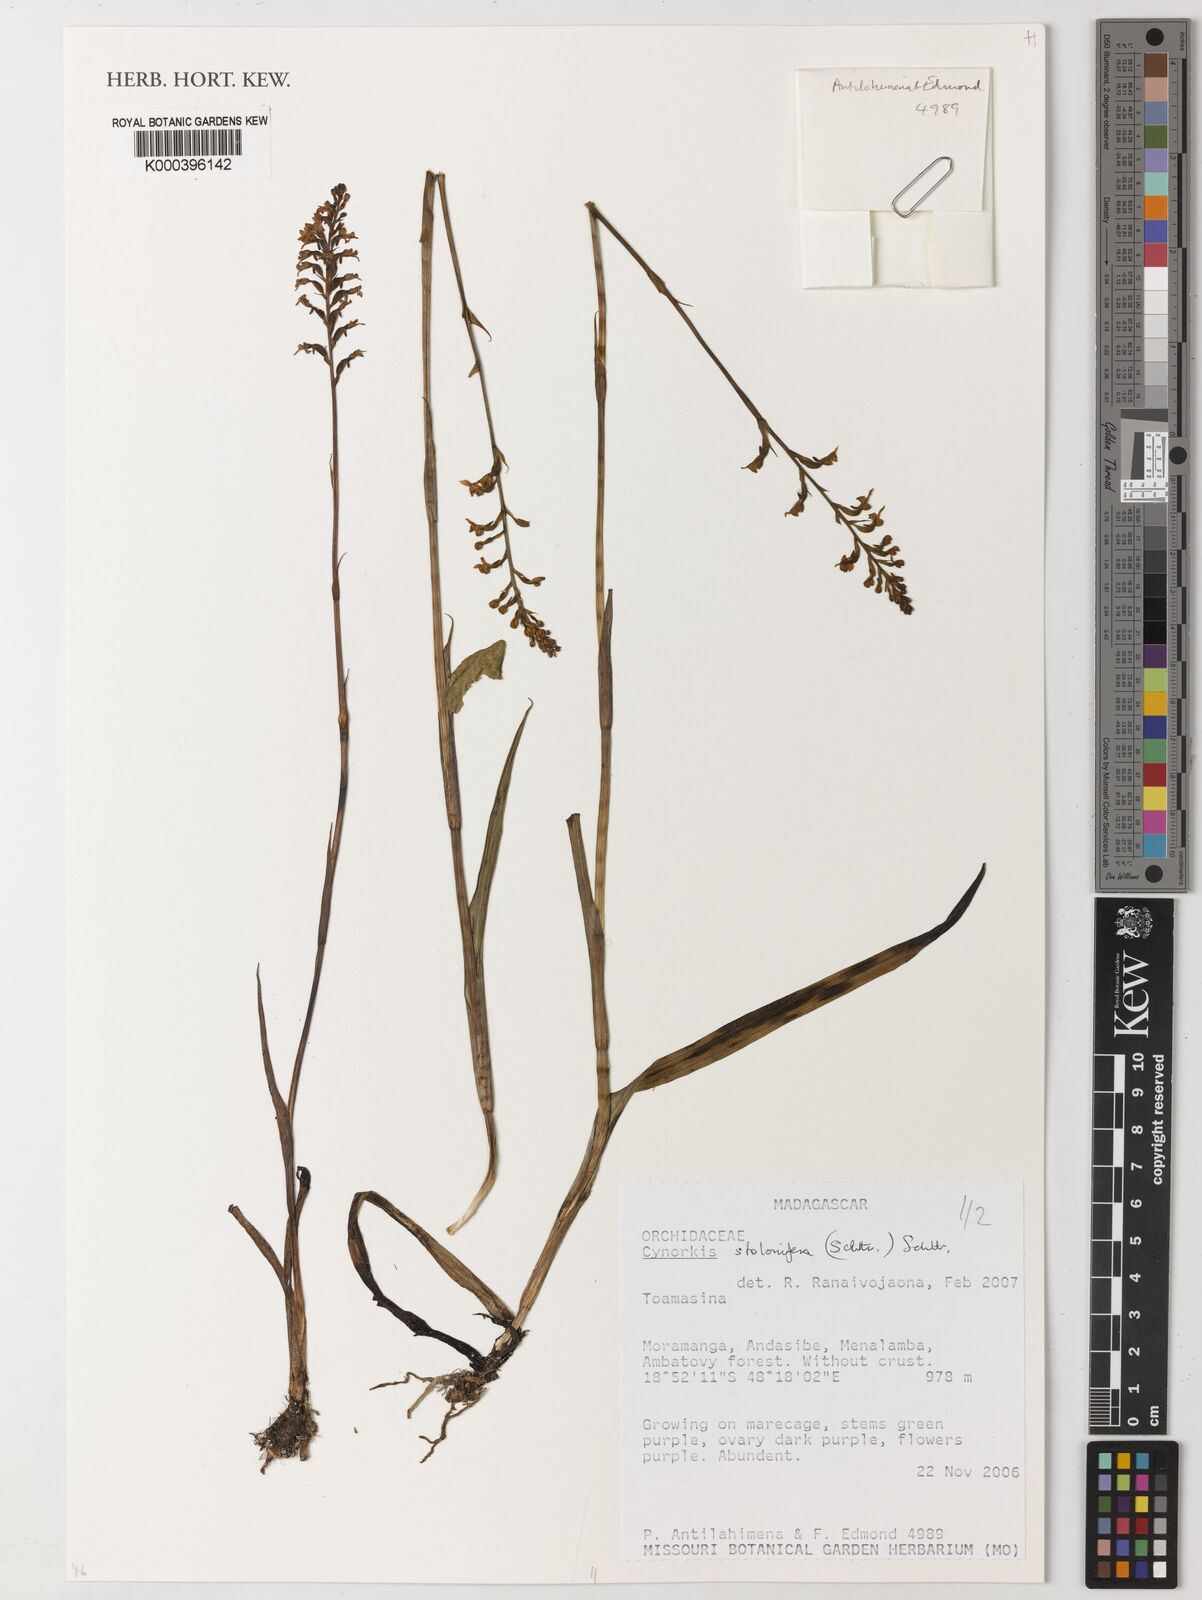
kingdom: Plantae
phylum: Tracheophyta
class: Liliopsida
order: Asparagales
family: Orchidaceae
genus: Cynorkis
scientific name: Cynorkis stolonifera
